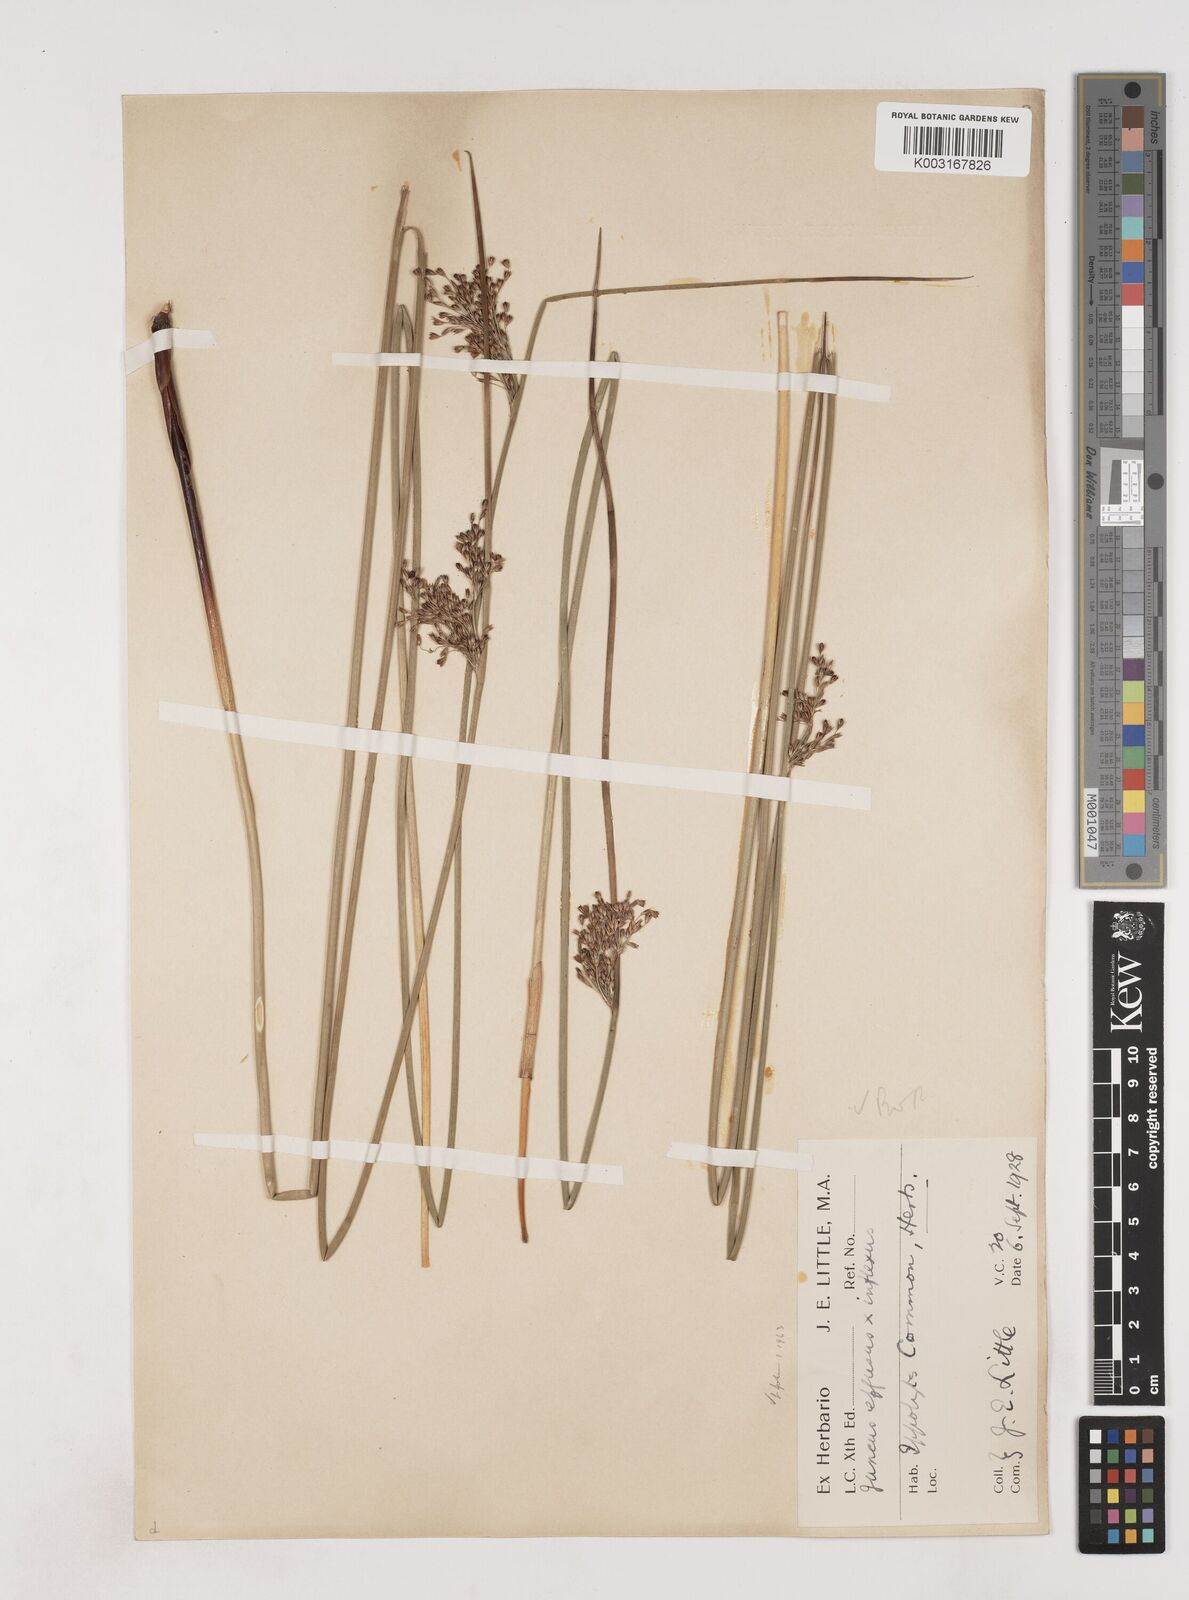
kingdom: Plantae
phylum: Tracheophyta
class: Liliopsida
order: Poales
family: Juncaceae
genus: Juncus
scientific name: Juncus effusus
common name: Soft rush
